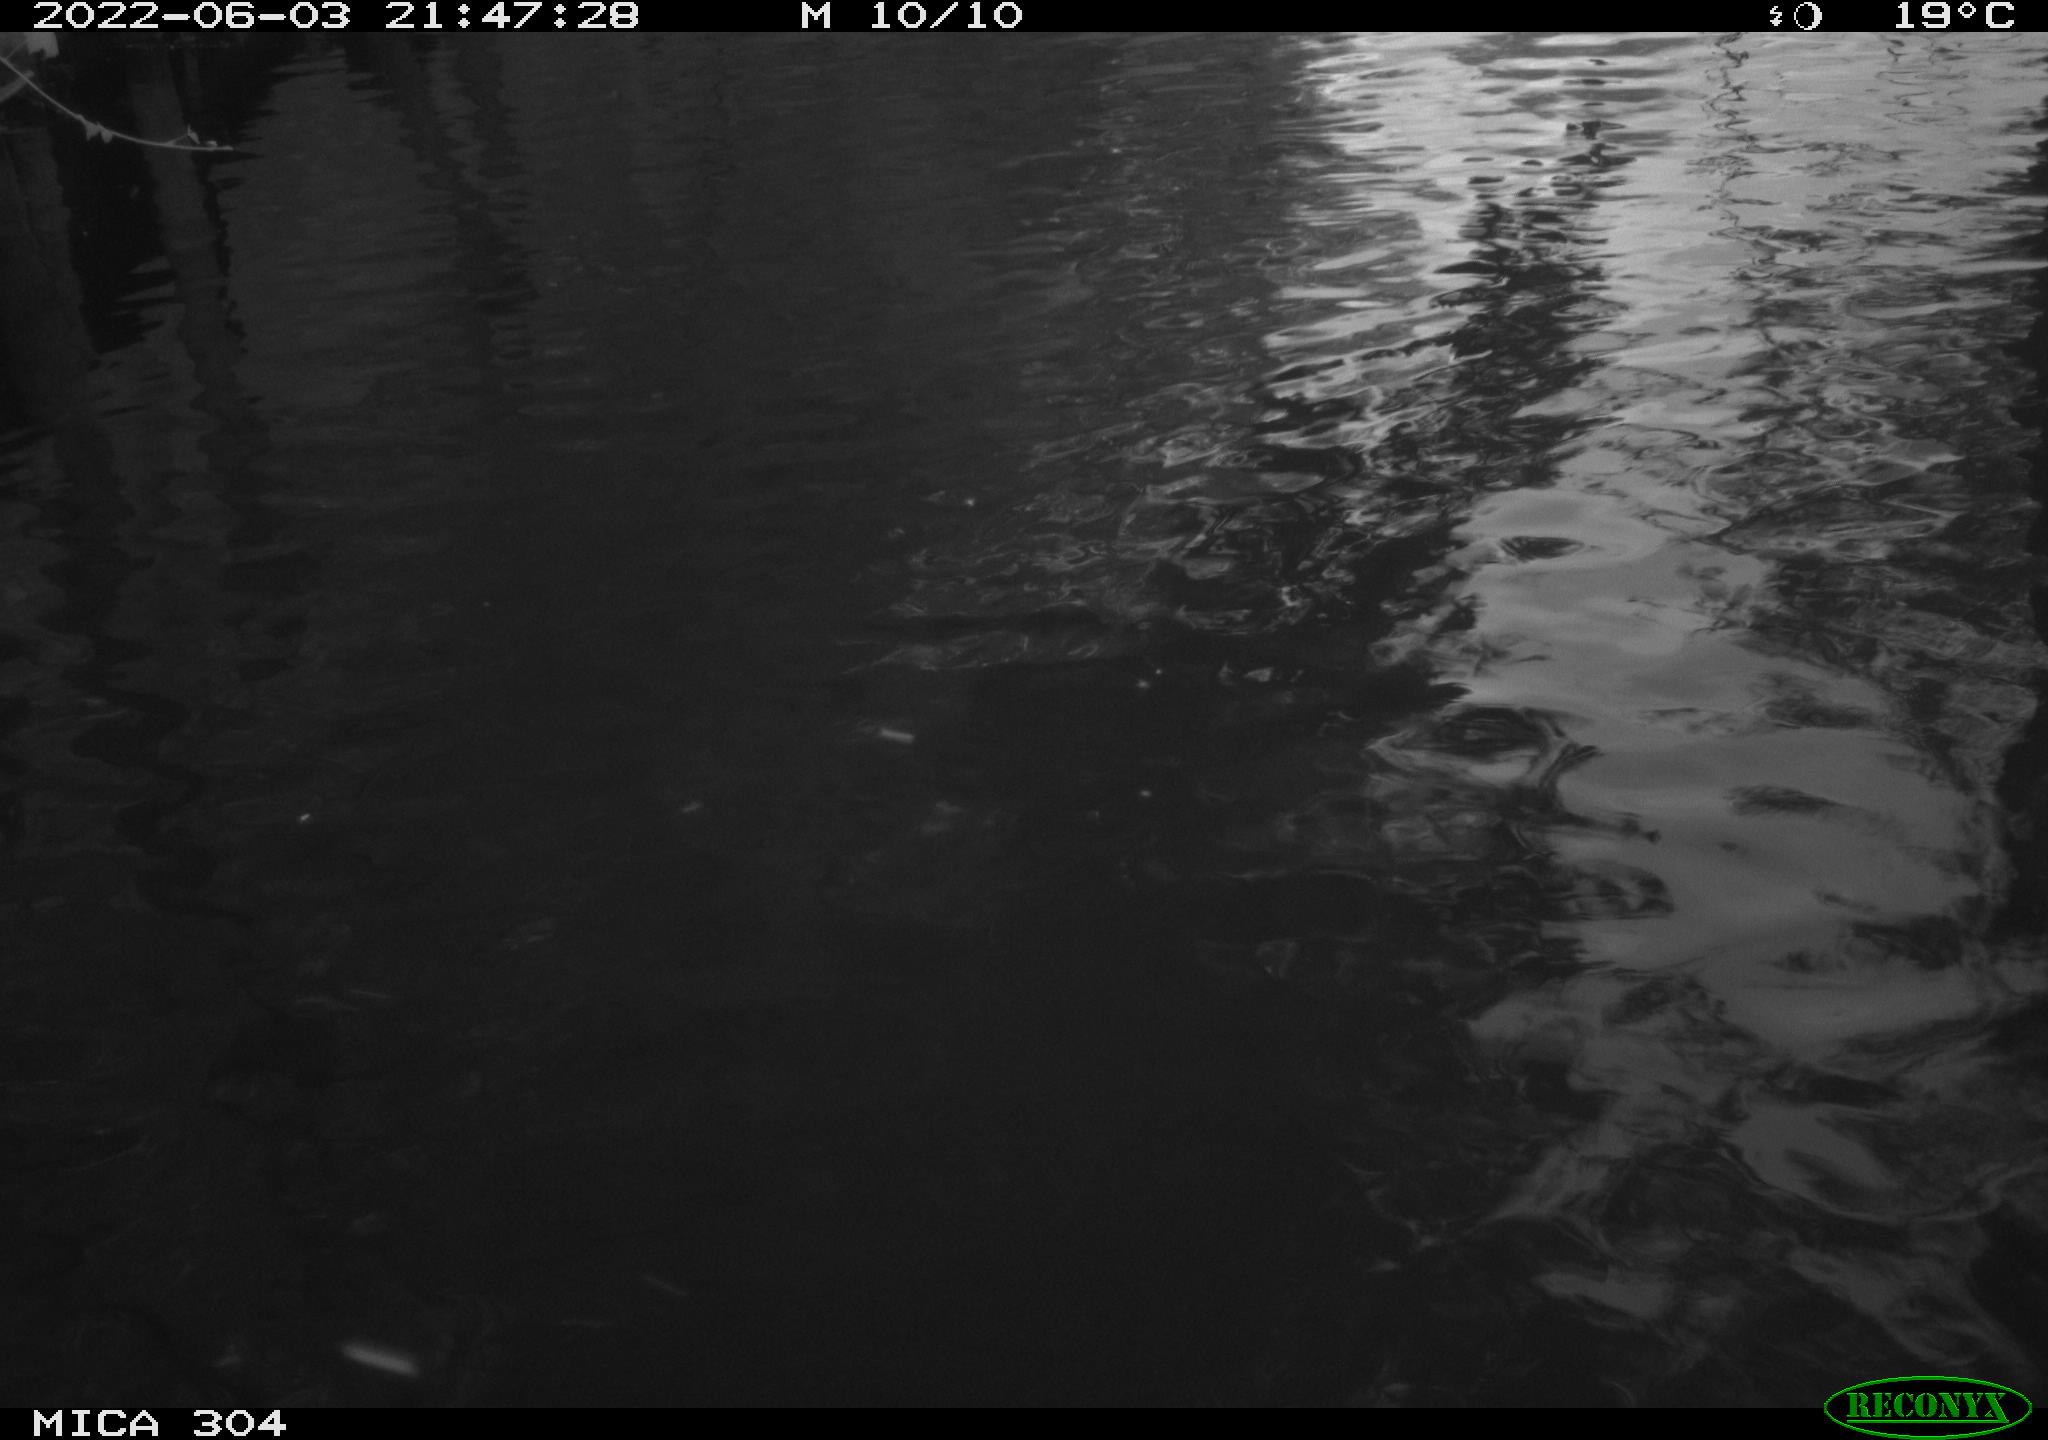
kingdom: Animalia
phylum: Chordata
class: Aves
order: Anseriformes
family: Anatidae
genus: Anas
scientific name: Anas platyrhynchos
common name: Mallard
